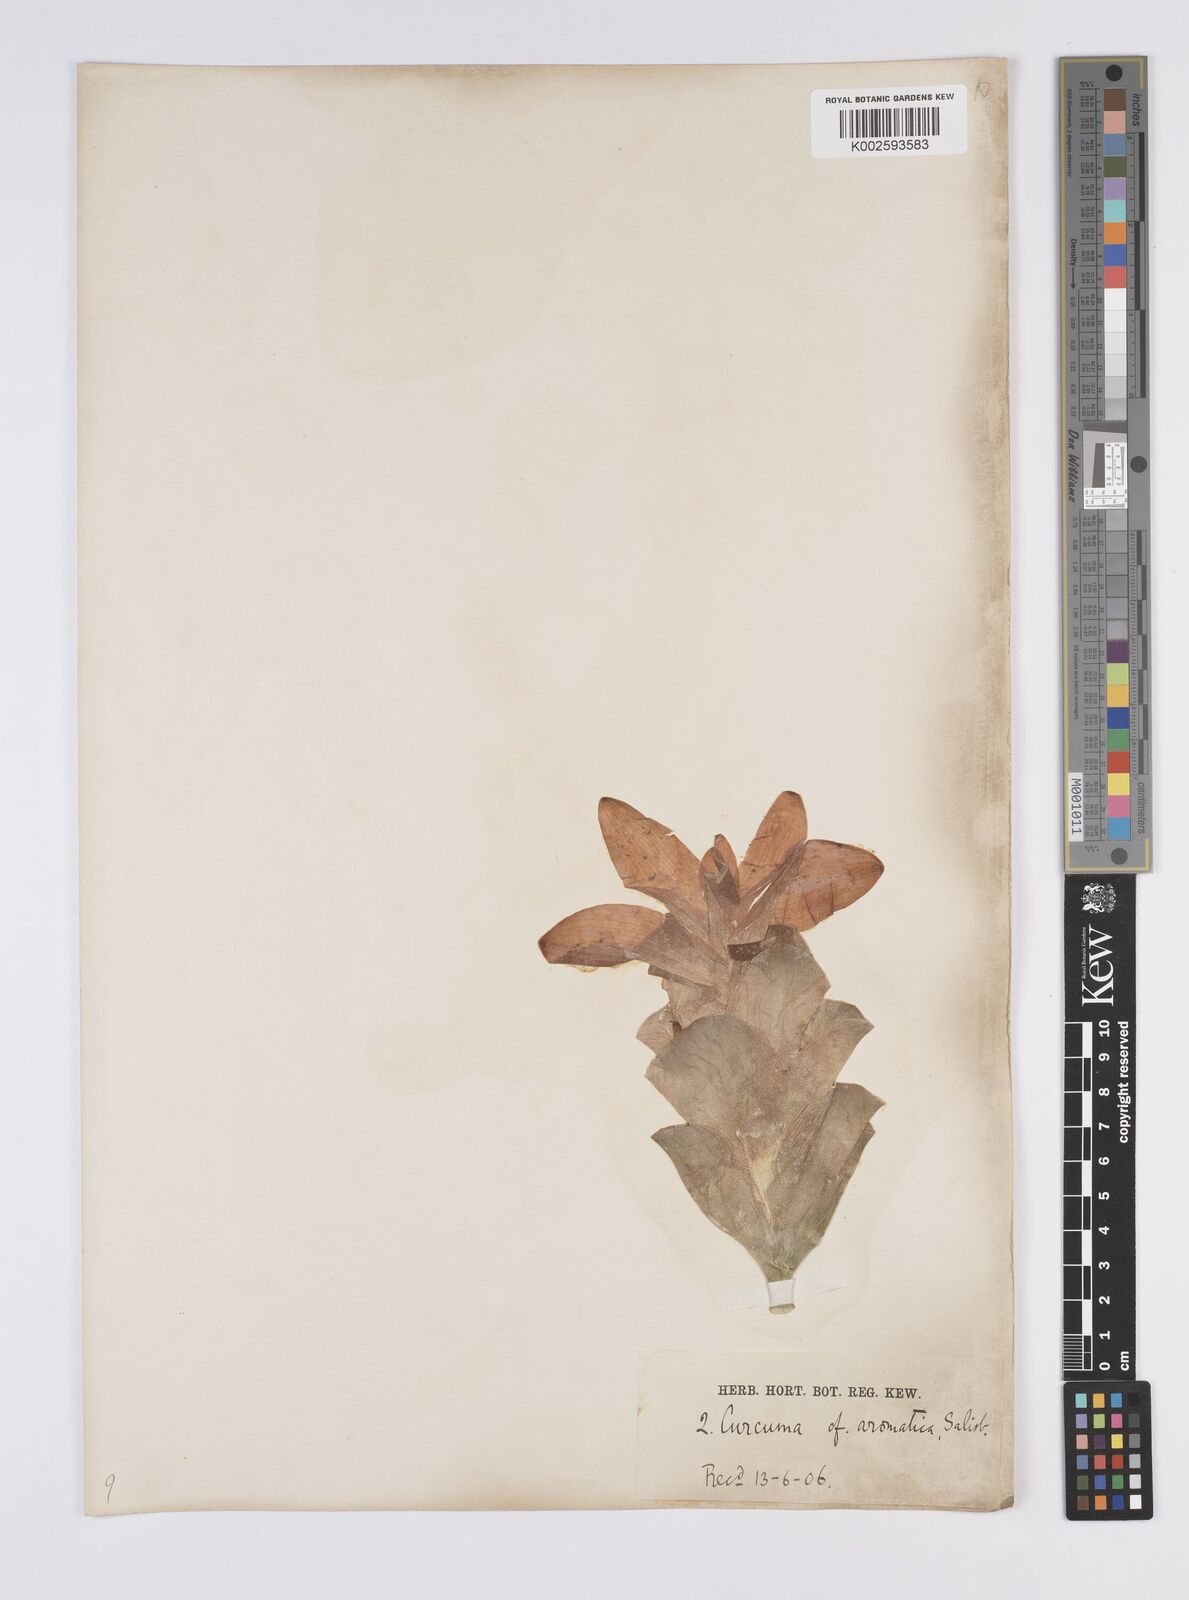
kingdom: Plantae
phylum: Tracheophyta
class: Liliopsida
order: Zingiberales
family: Zingiberaceae
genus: Curcuma
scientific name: Curcuma aromatica
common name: Wild turmeric
